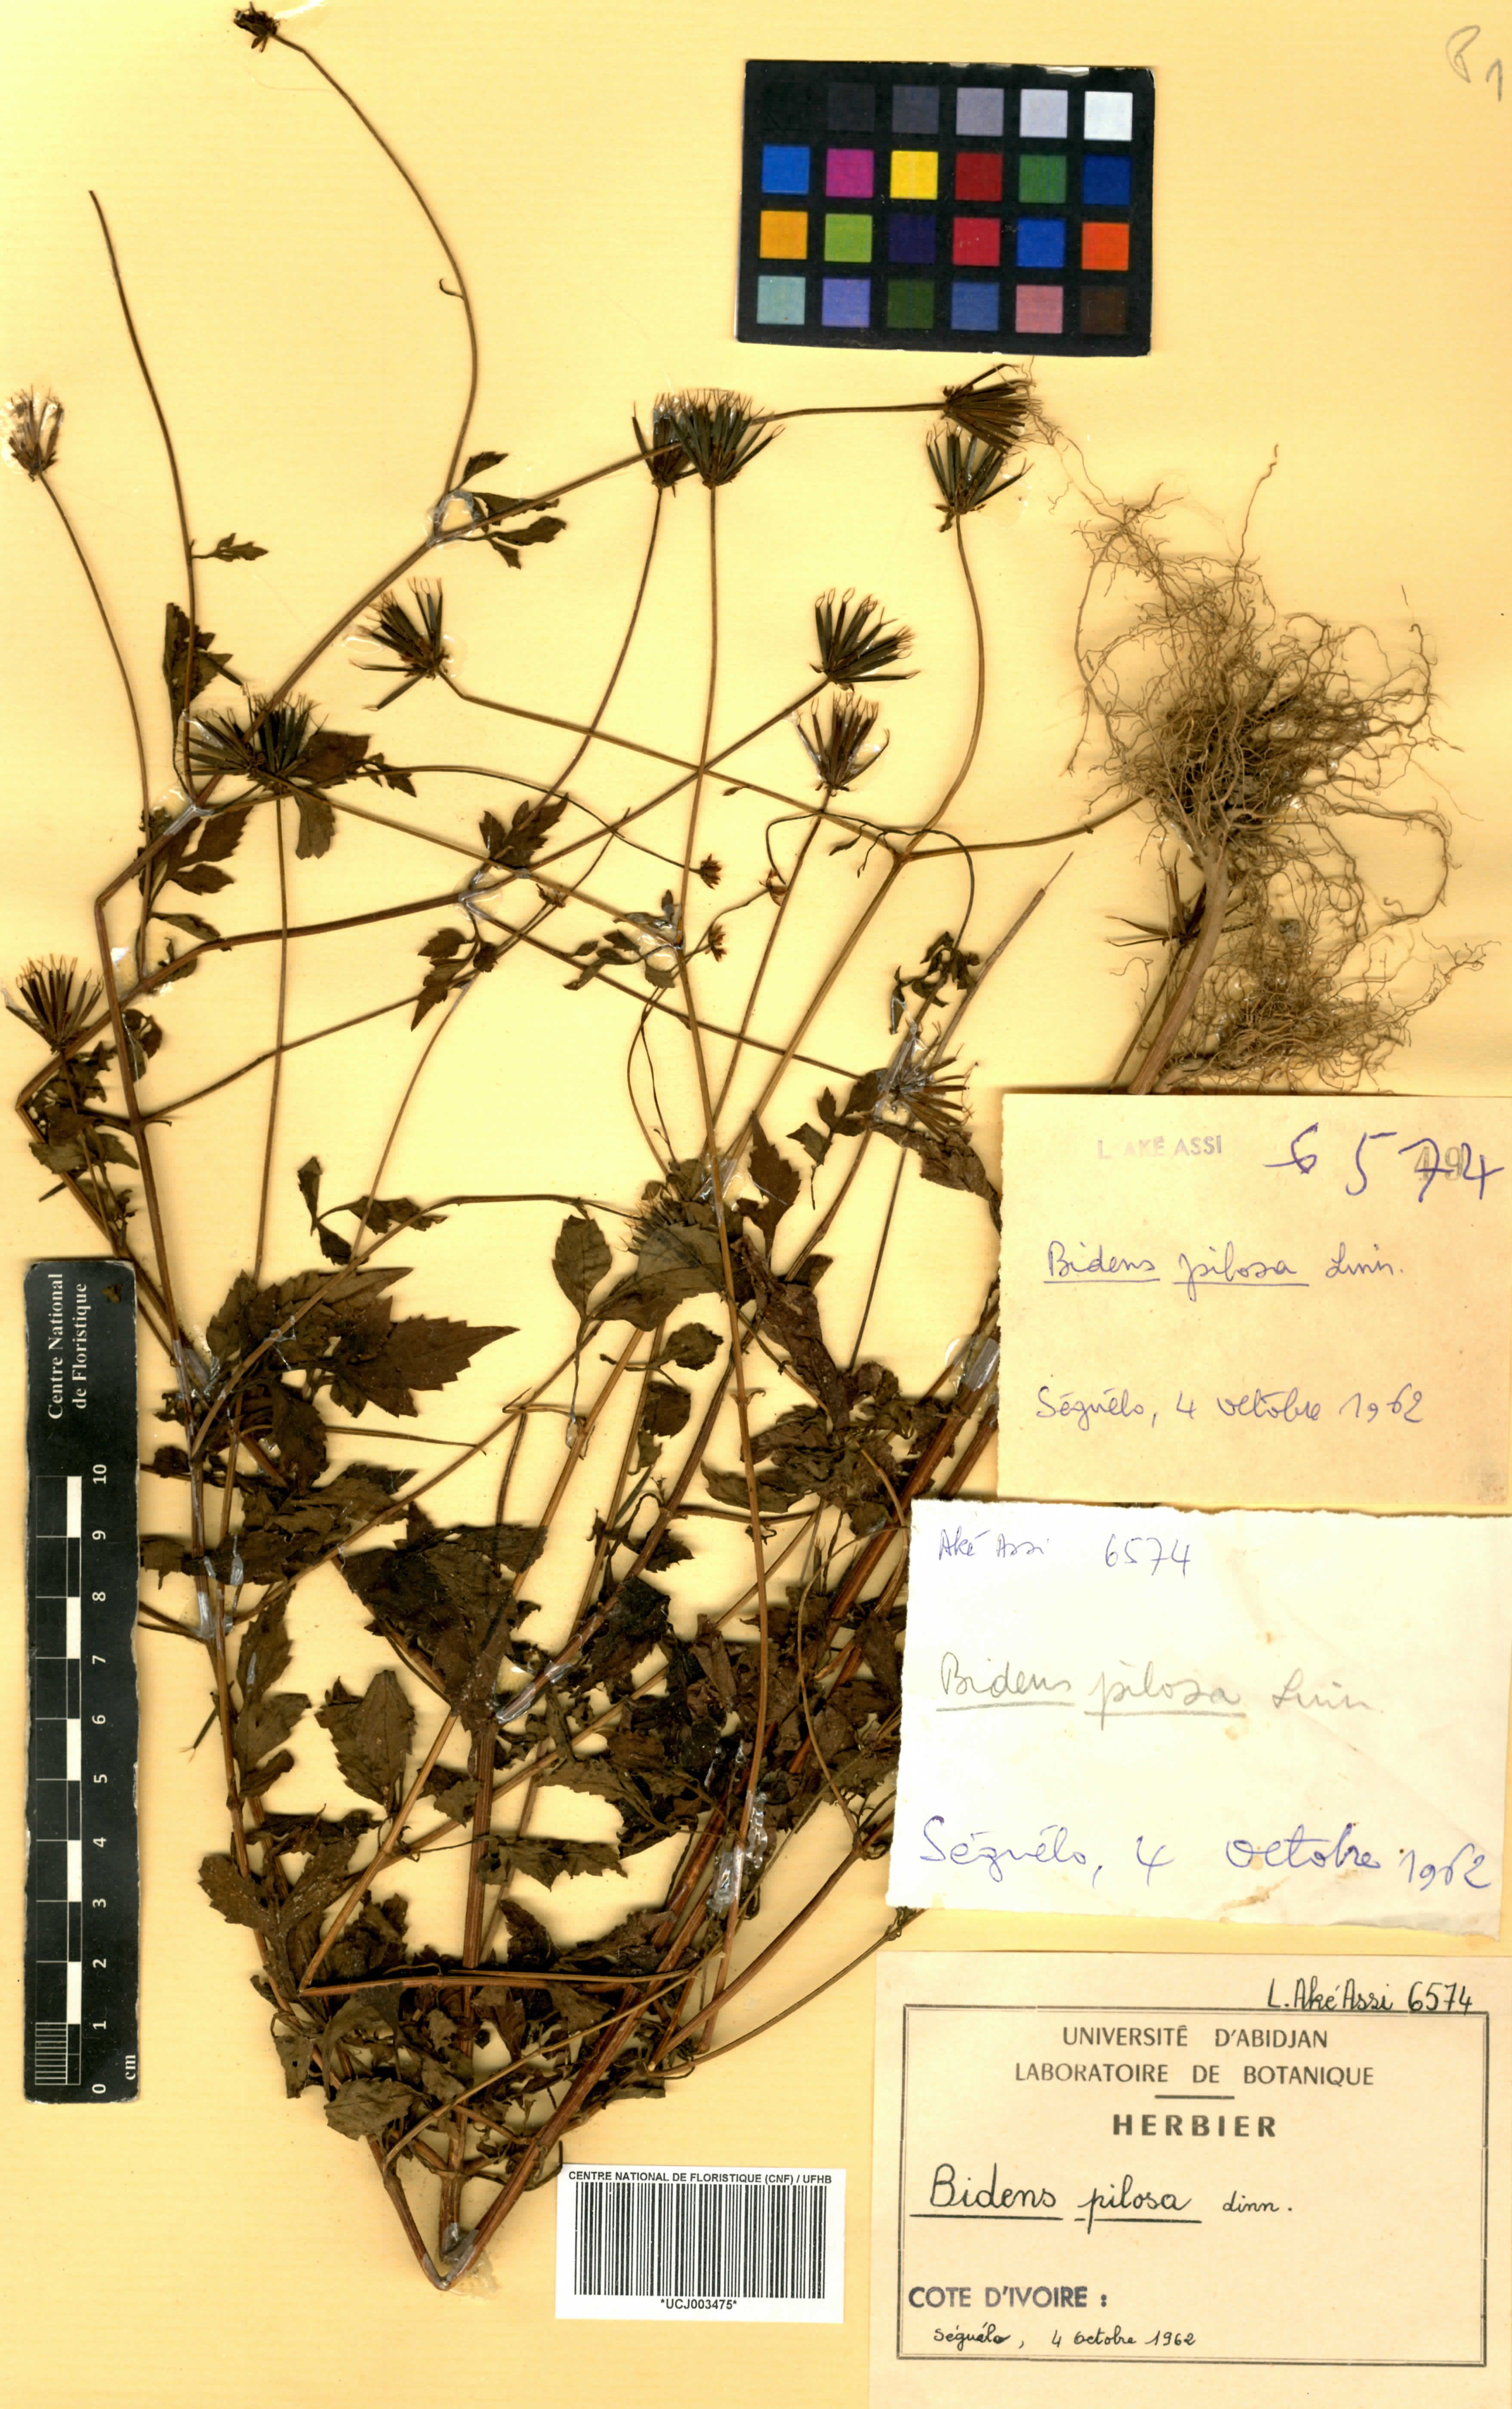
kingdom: Plantae
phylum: Tracheophyta
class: Magnoliopsida
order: Asterales
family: Asteraceae
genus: Bidens
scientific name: Bidens pilosa
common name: Black-jack
